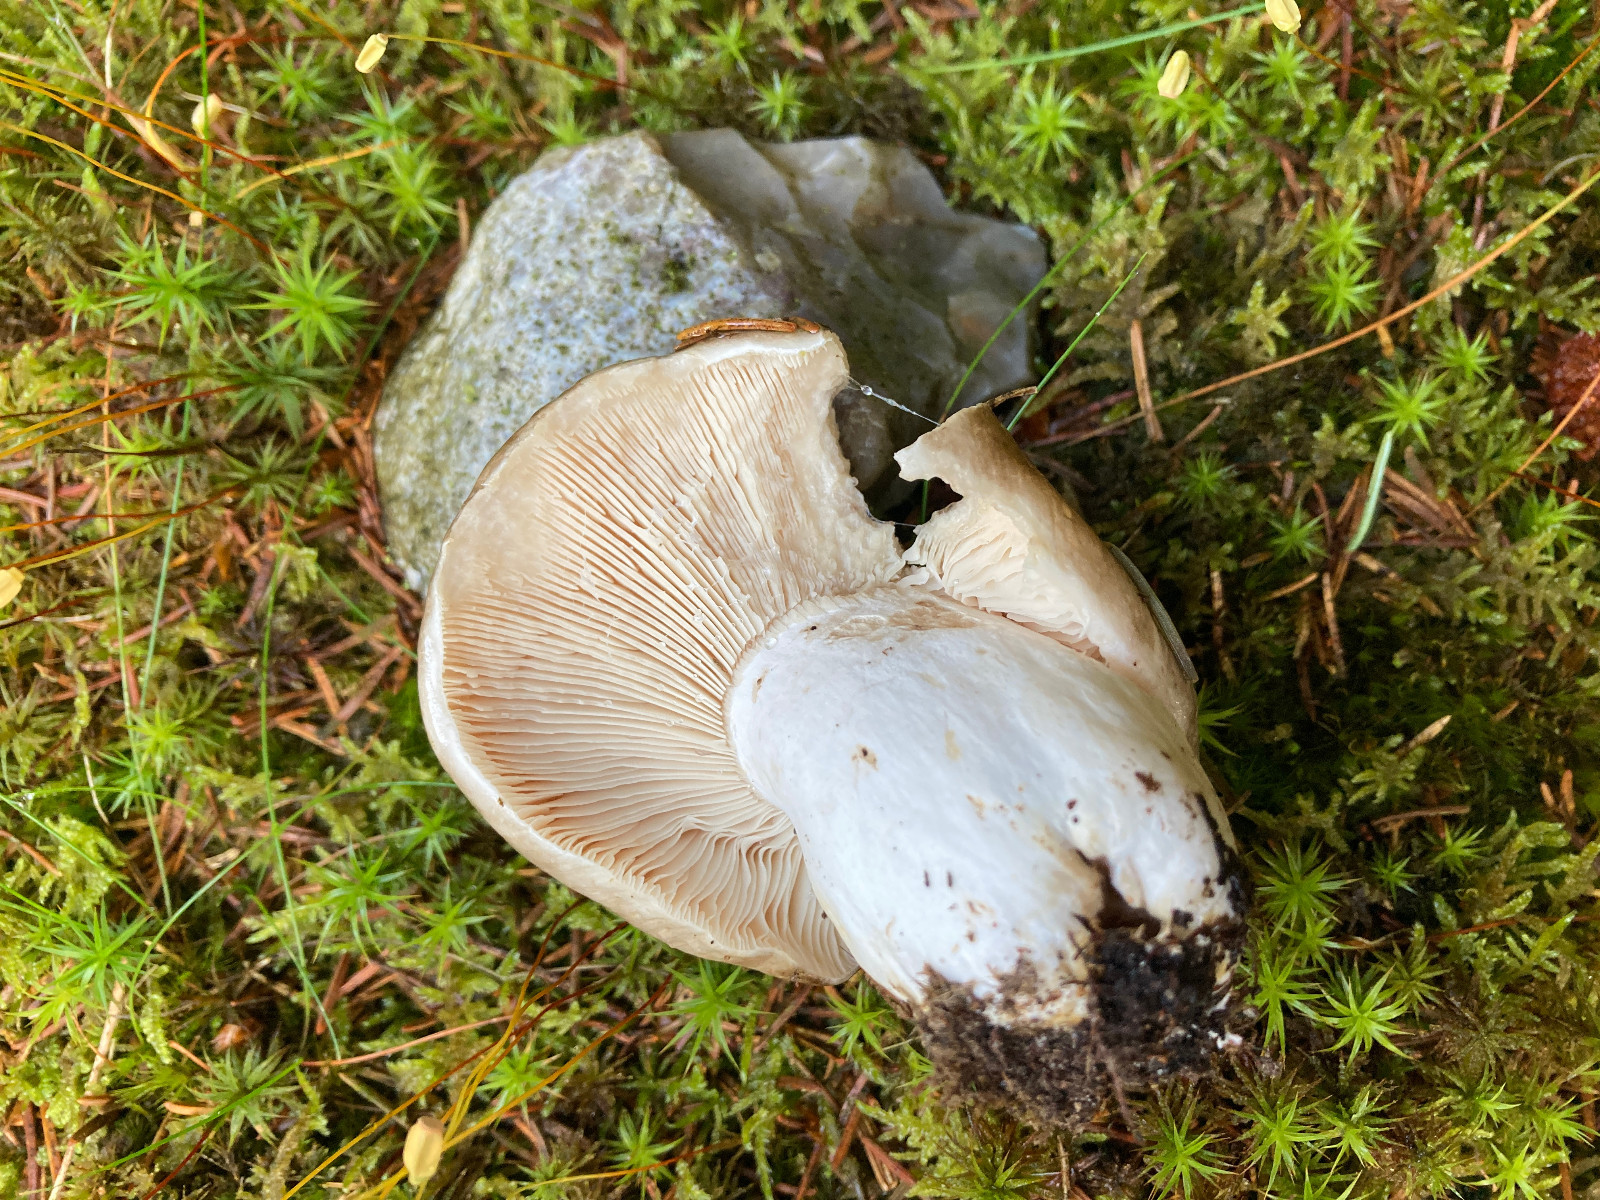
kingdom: Fungi
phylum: Basidiomycota
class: Agaricomycetes
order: Russulales
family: Russulaceae
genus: Russula
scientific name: Russula adusta
